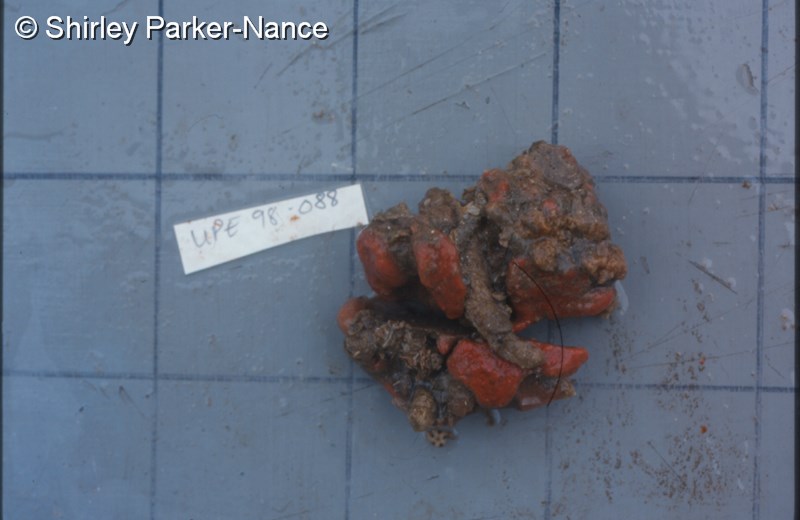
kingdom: Animalia
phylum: Chordata
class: Ascidiacea
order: Aplousobranchia
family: Polyclinidae
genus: Aplidium
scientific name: Aplidium flavolineatum
